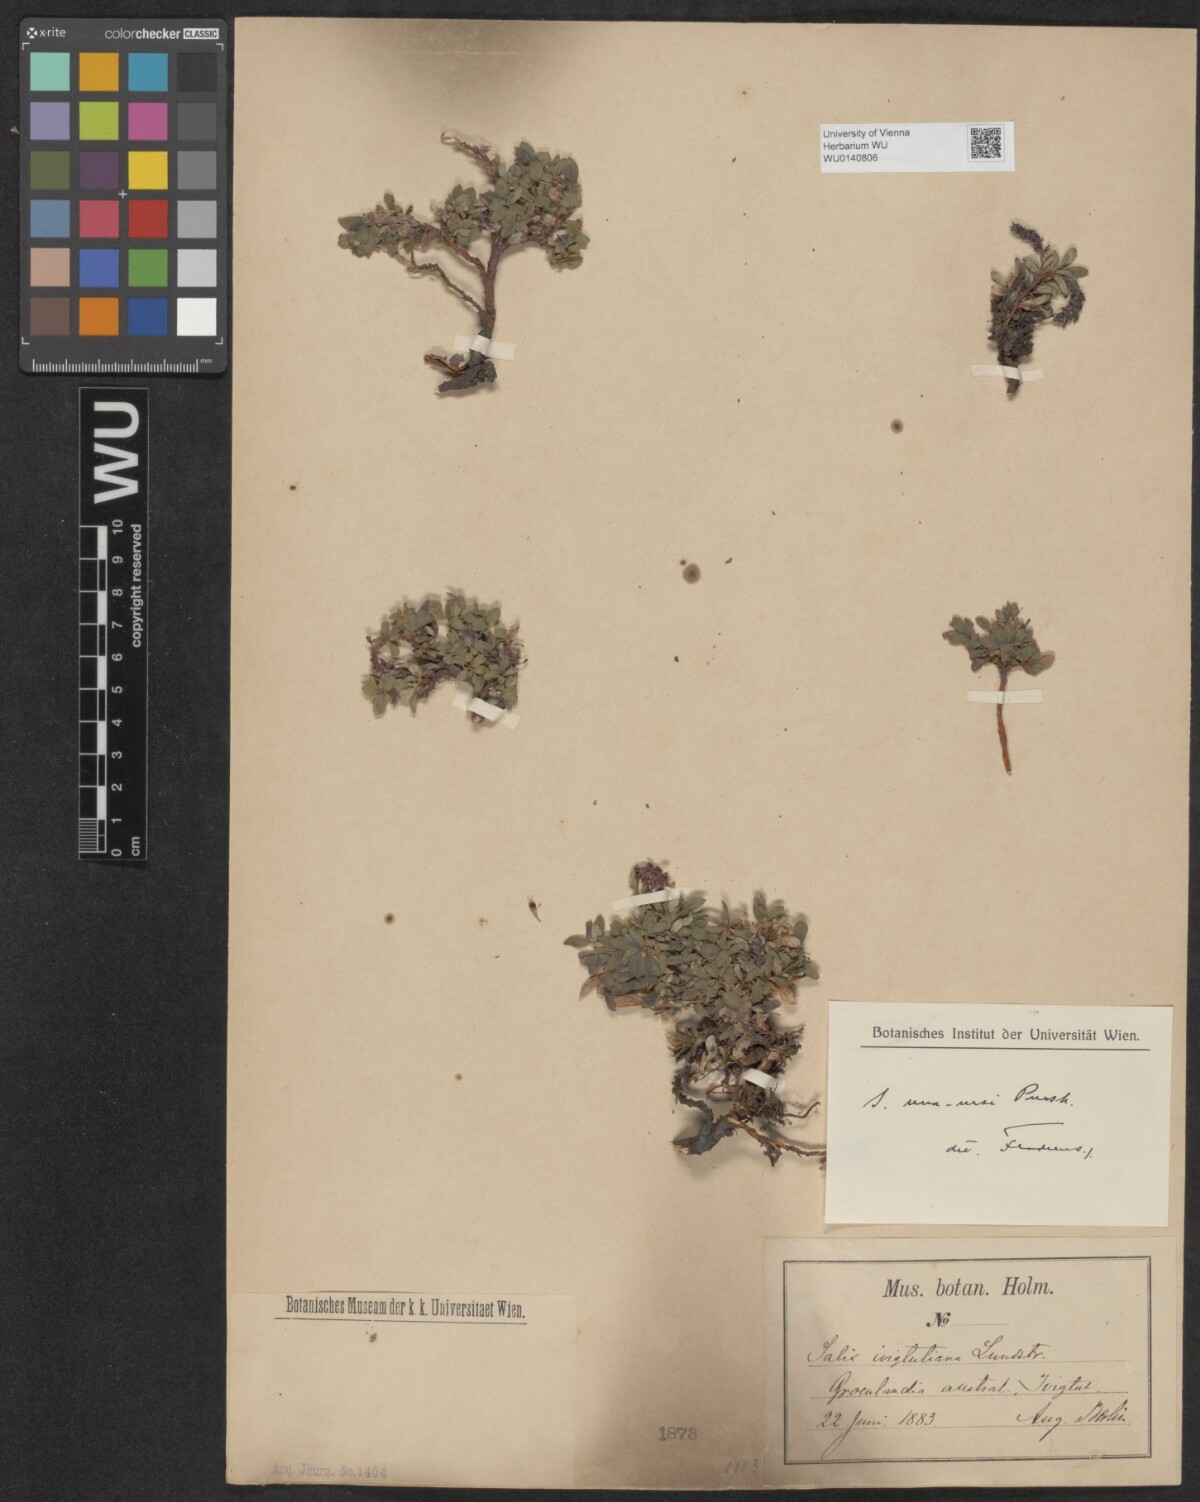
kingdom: Plantae
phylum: Tracheophyta
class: Magnoliopsida
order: Malpighiales
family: Salicaceae
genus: Salix
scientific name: Salix uva-ursi
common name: Bearberry willow
